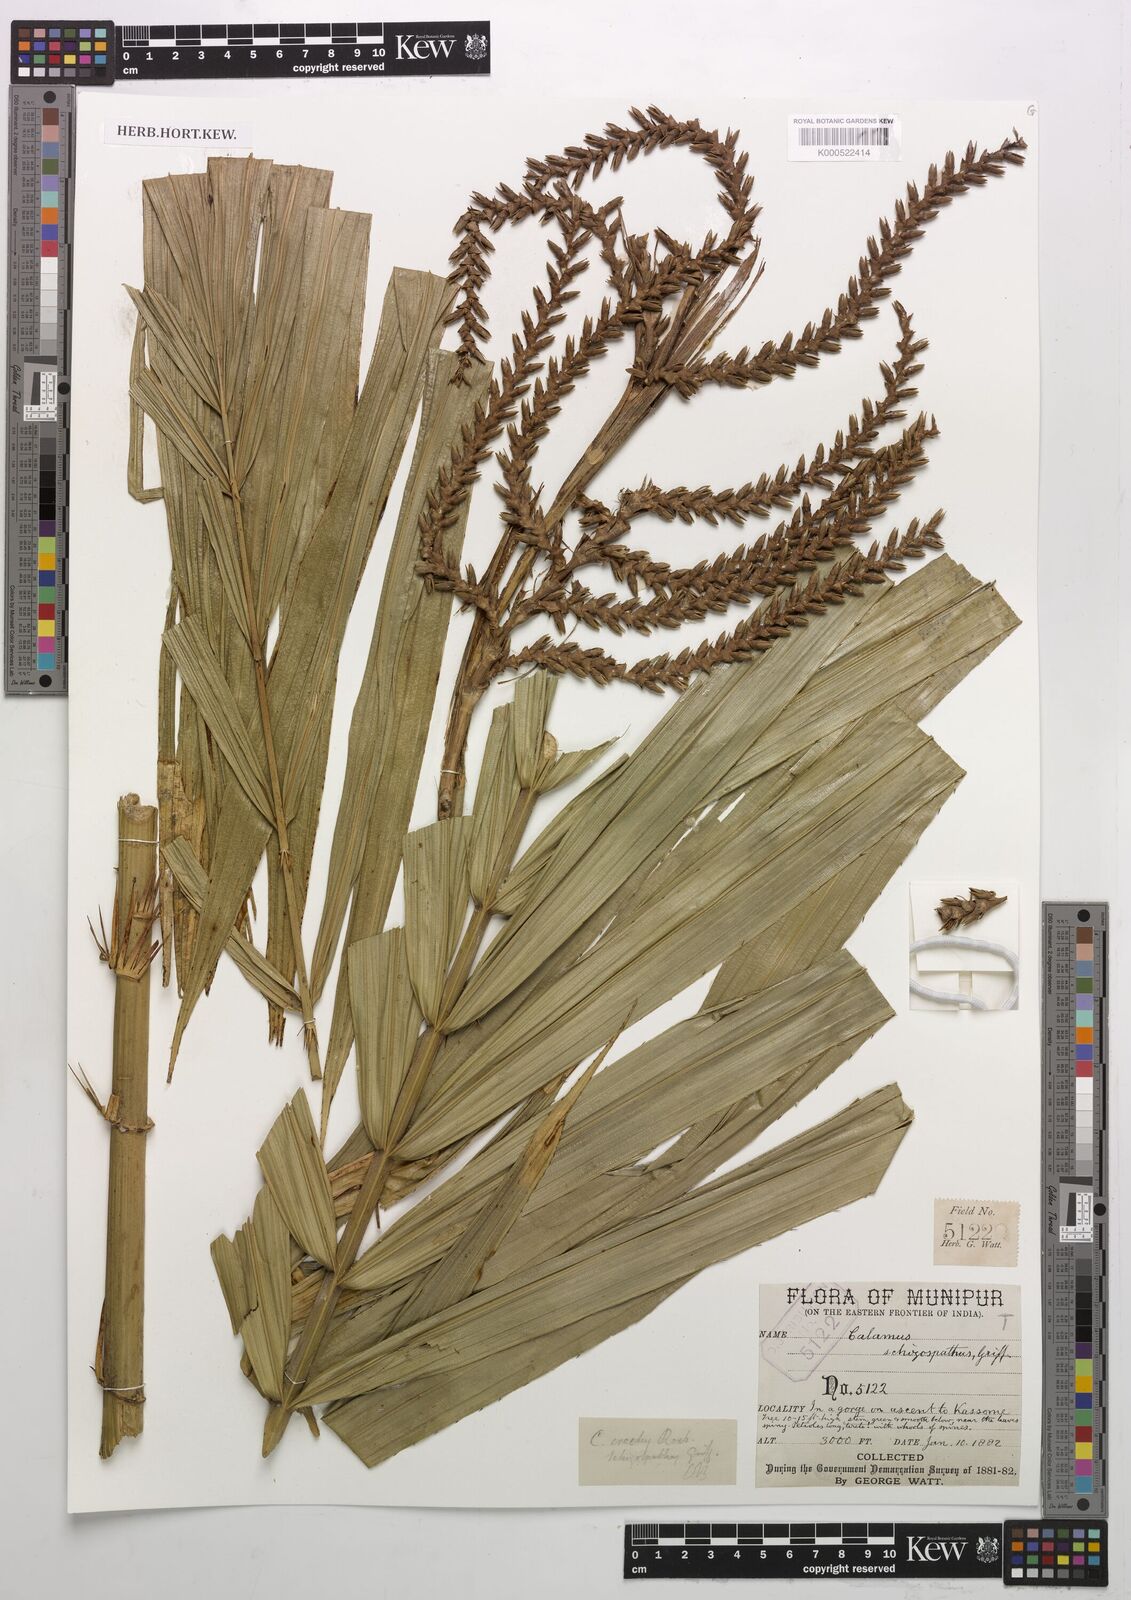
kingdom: Plantae
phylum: Tracheophyta
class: Liliopsida
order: Arecales
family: Arecaceae
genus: Calamus
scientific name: Calamus erectus
